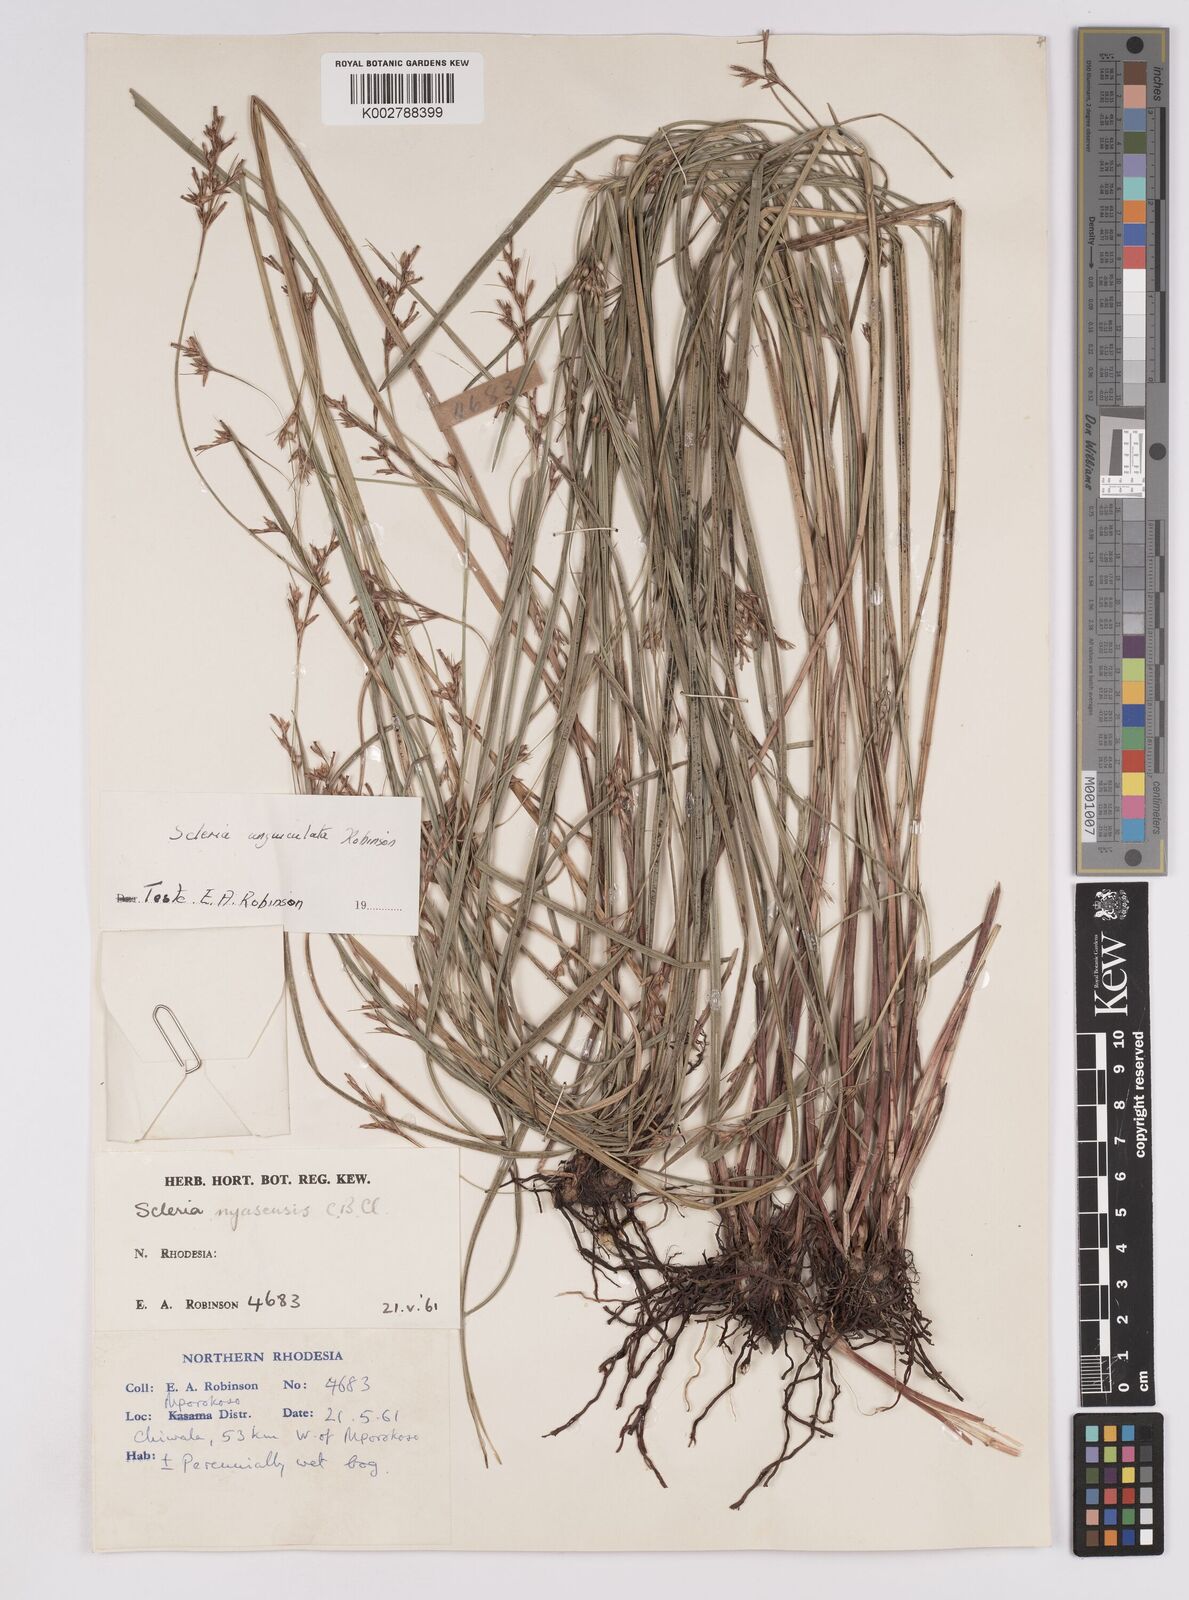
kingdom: Plantae
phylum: Tracheophyta
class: Liliopsida
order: Poales
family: Cyperaceae
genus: Scleria
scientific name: Scleria unguiculata
